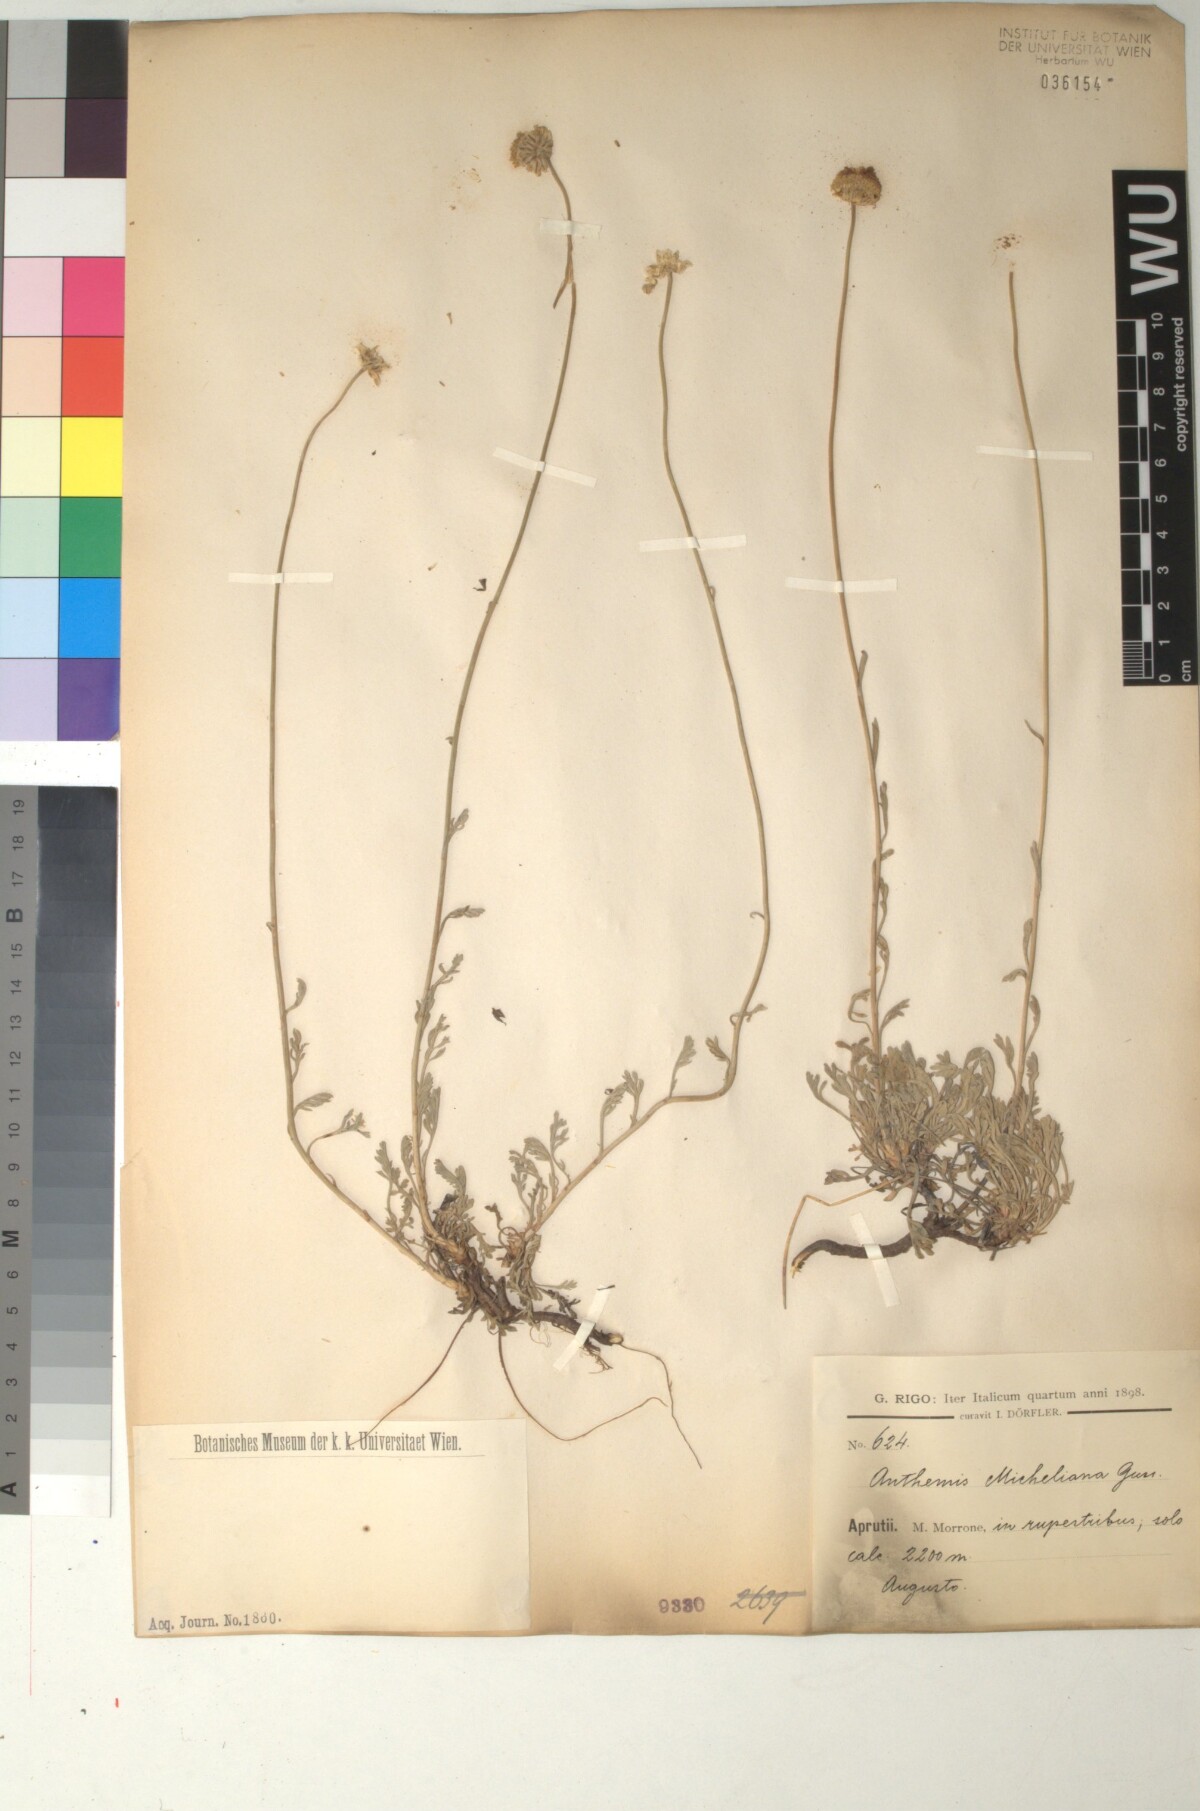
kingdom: Plantae
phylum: Tracheophyta
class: Magnoliopsida
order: Asterales
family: Asteraceae
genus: Anthemis
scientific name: Anthemis cretica
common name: Mountain dog-daisy
